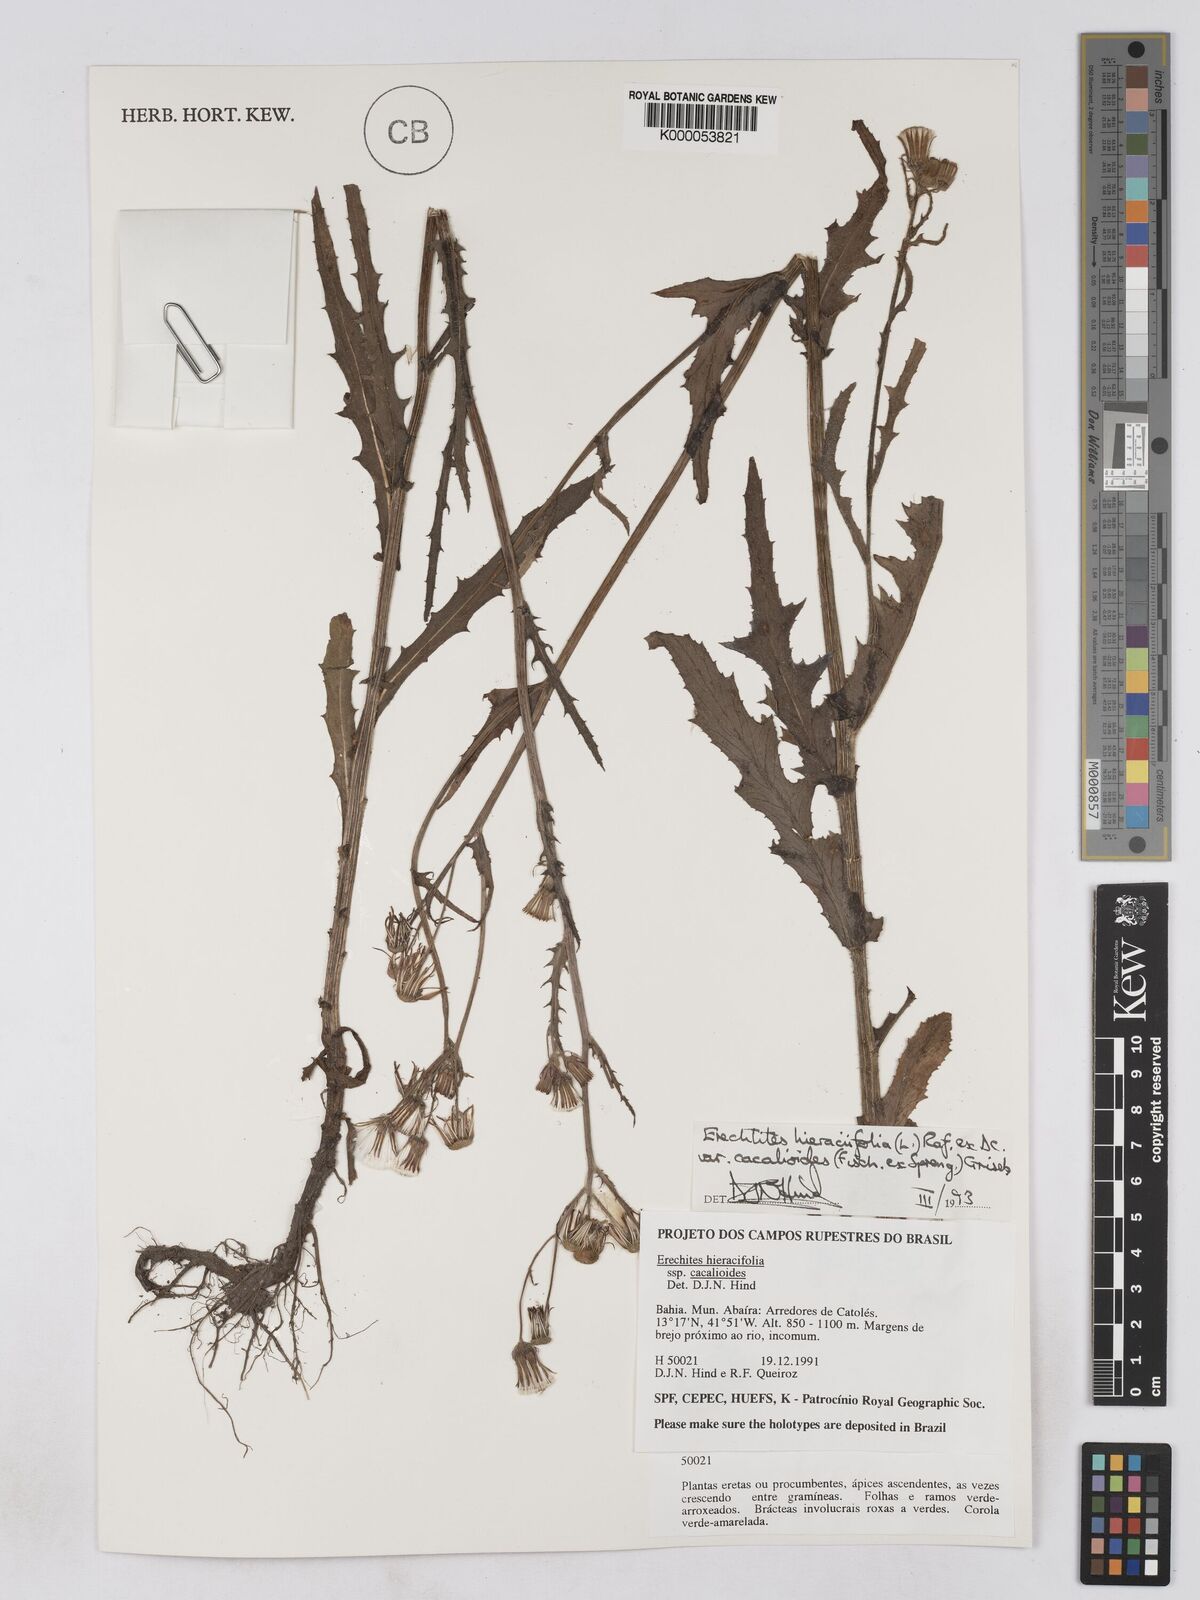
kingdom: Plantae
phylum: Tracheophyta
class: Magnoliopsida
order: Asterales
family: Asteraceae
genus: Erechtites
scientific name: Erechtites hieraciifolius
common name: American burnweed
